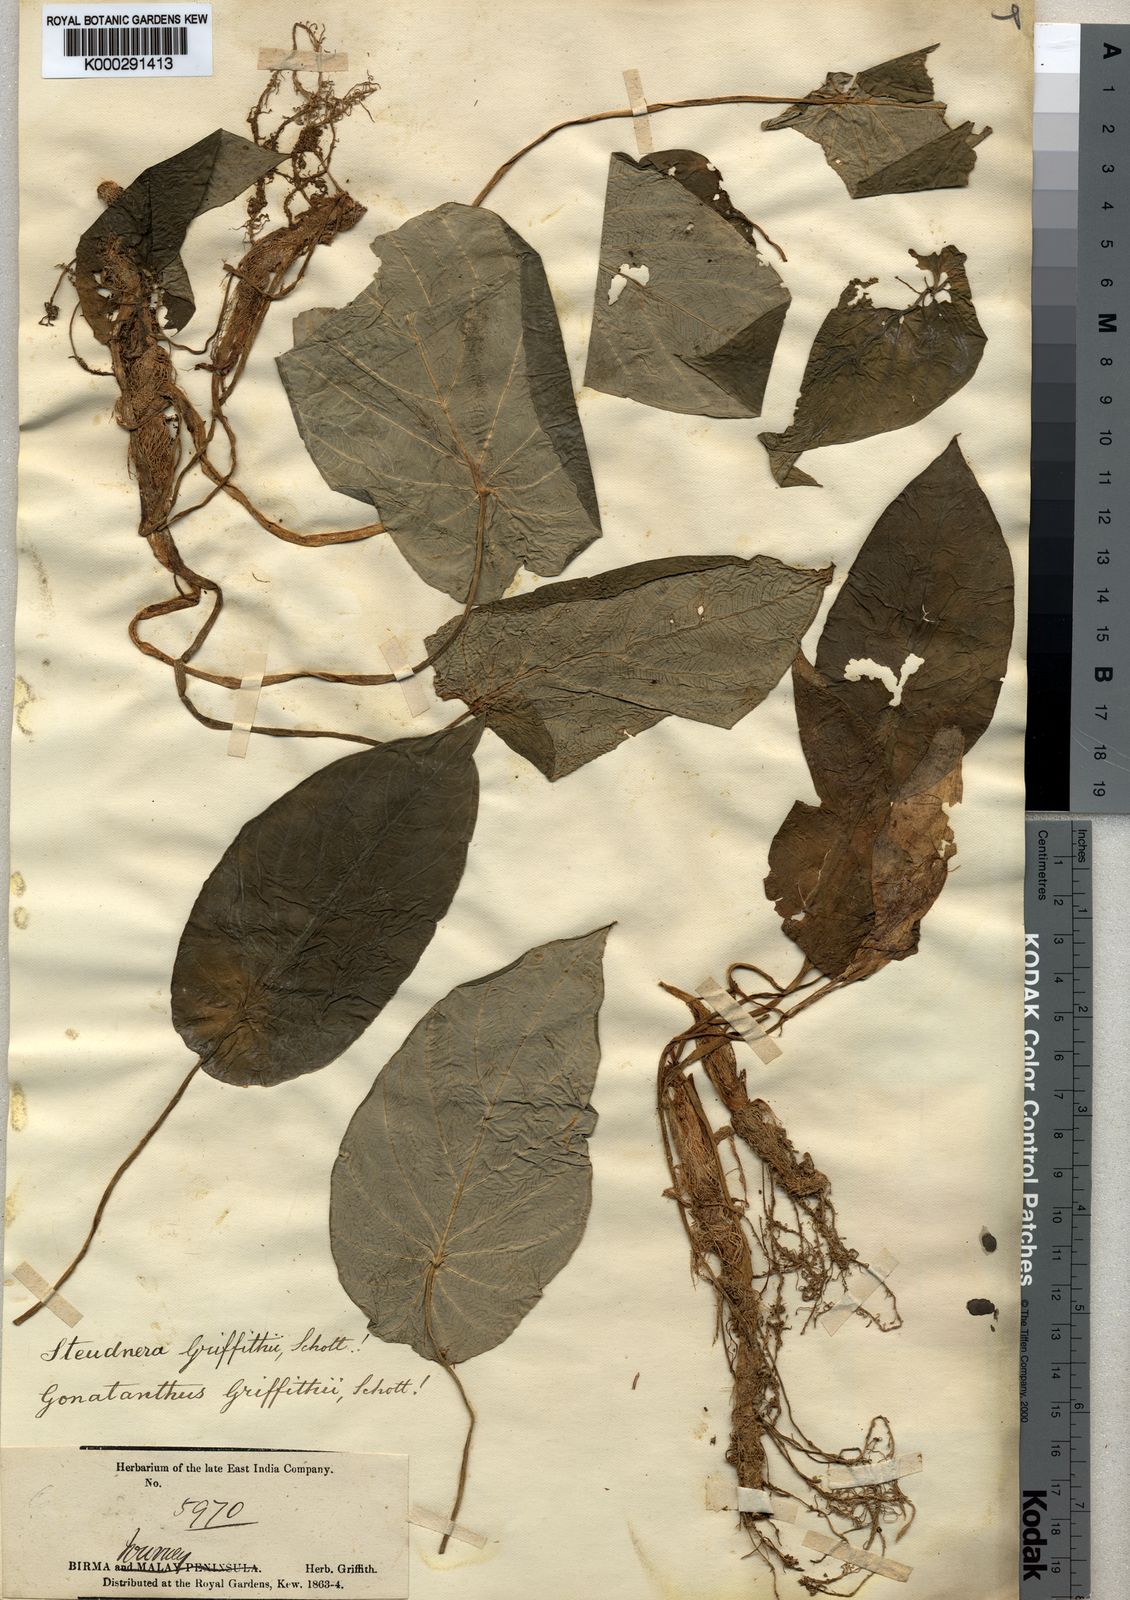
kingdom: Plantae
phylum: Tracheophyta
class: Liliopsida
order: Alismatales
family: Araceae
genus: Steudnera
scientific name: Steudnera griffithii
